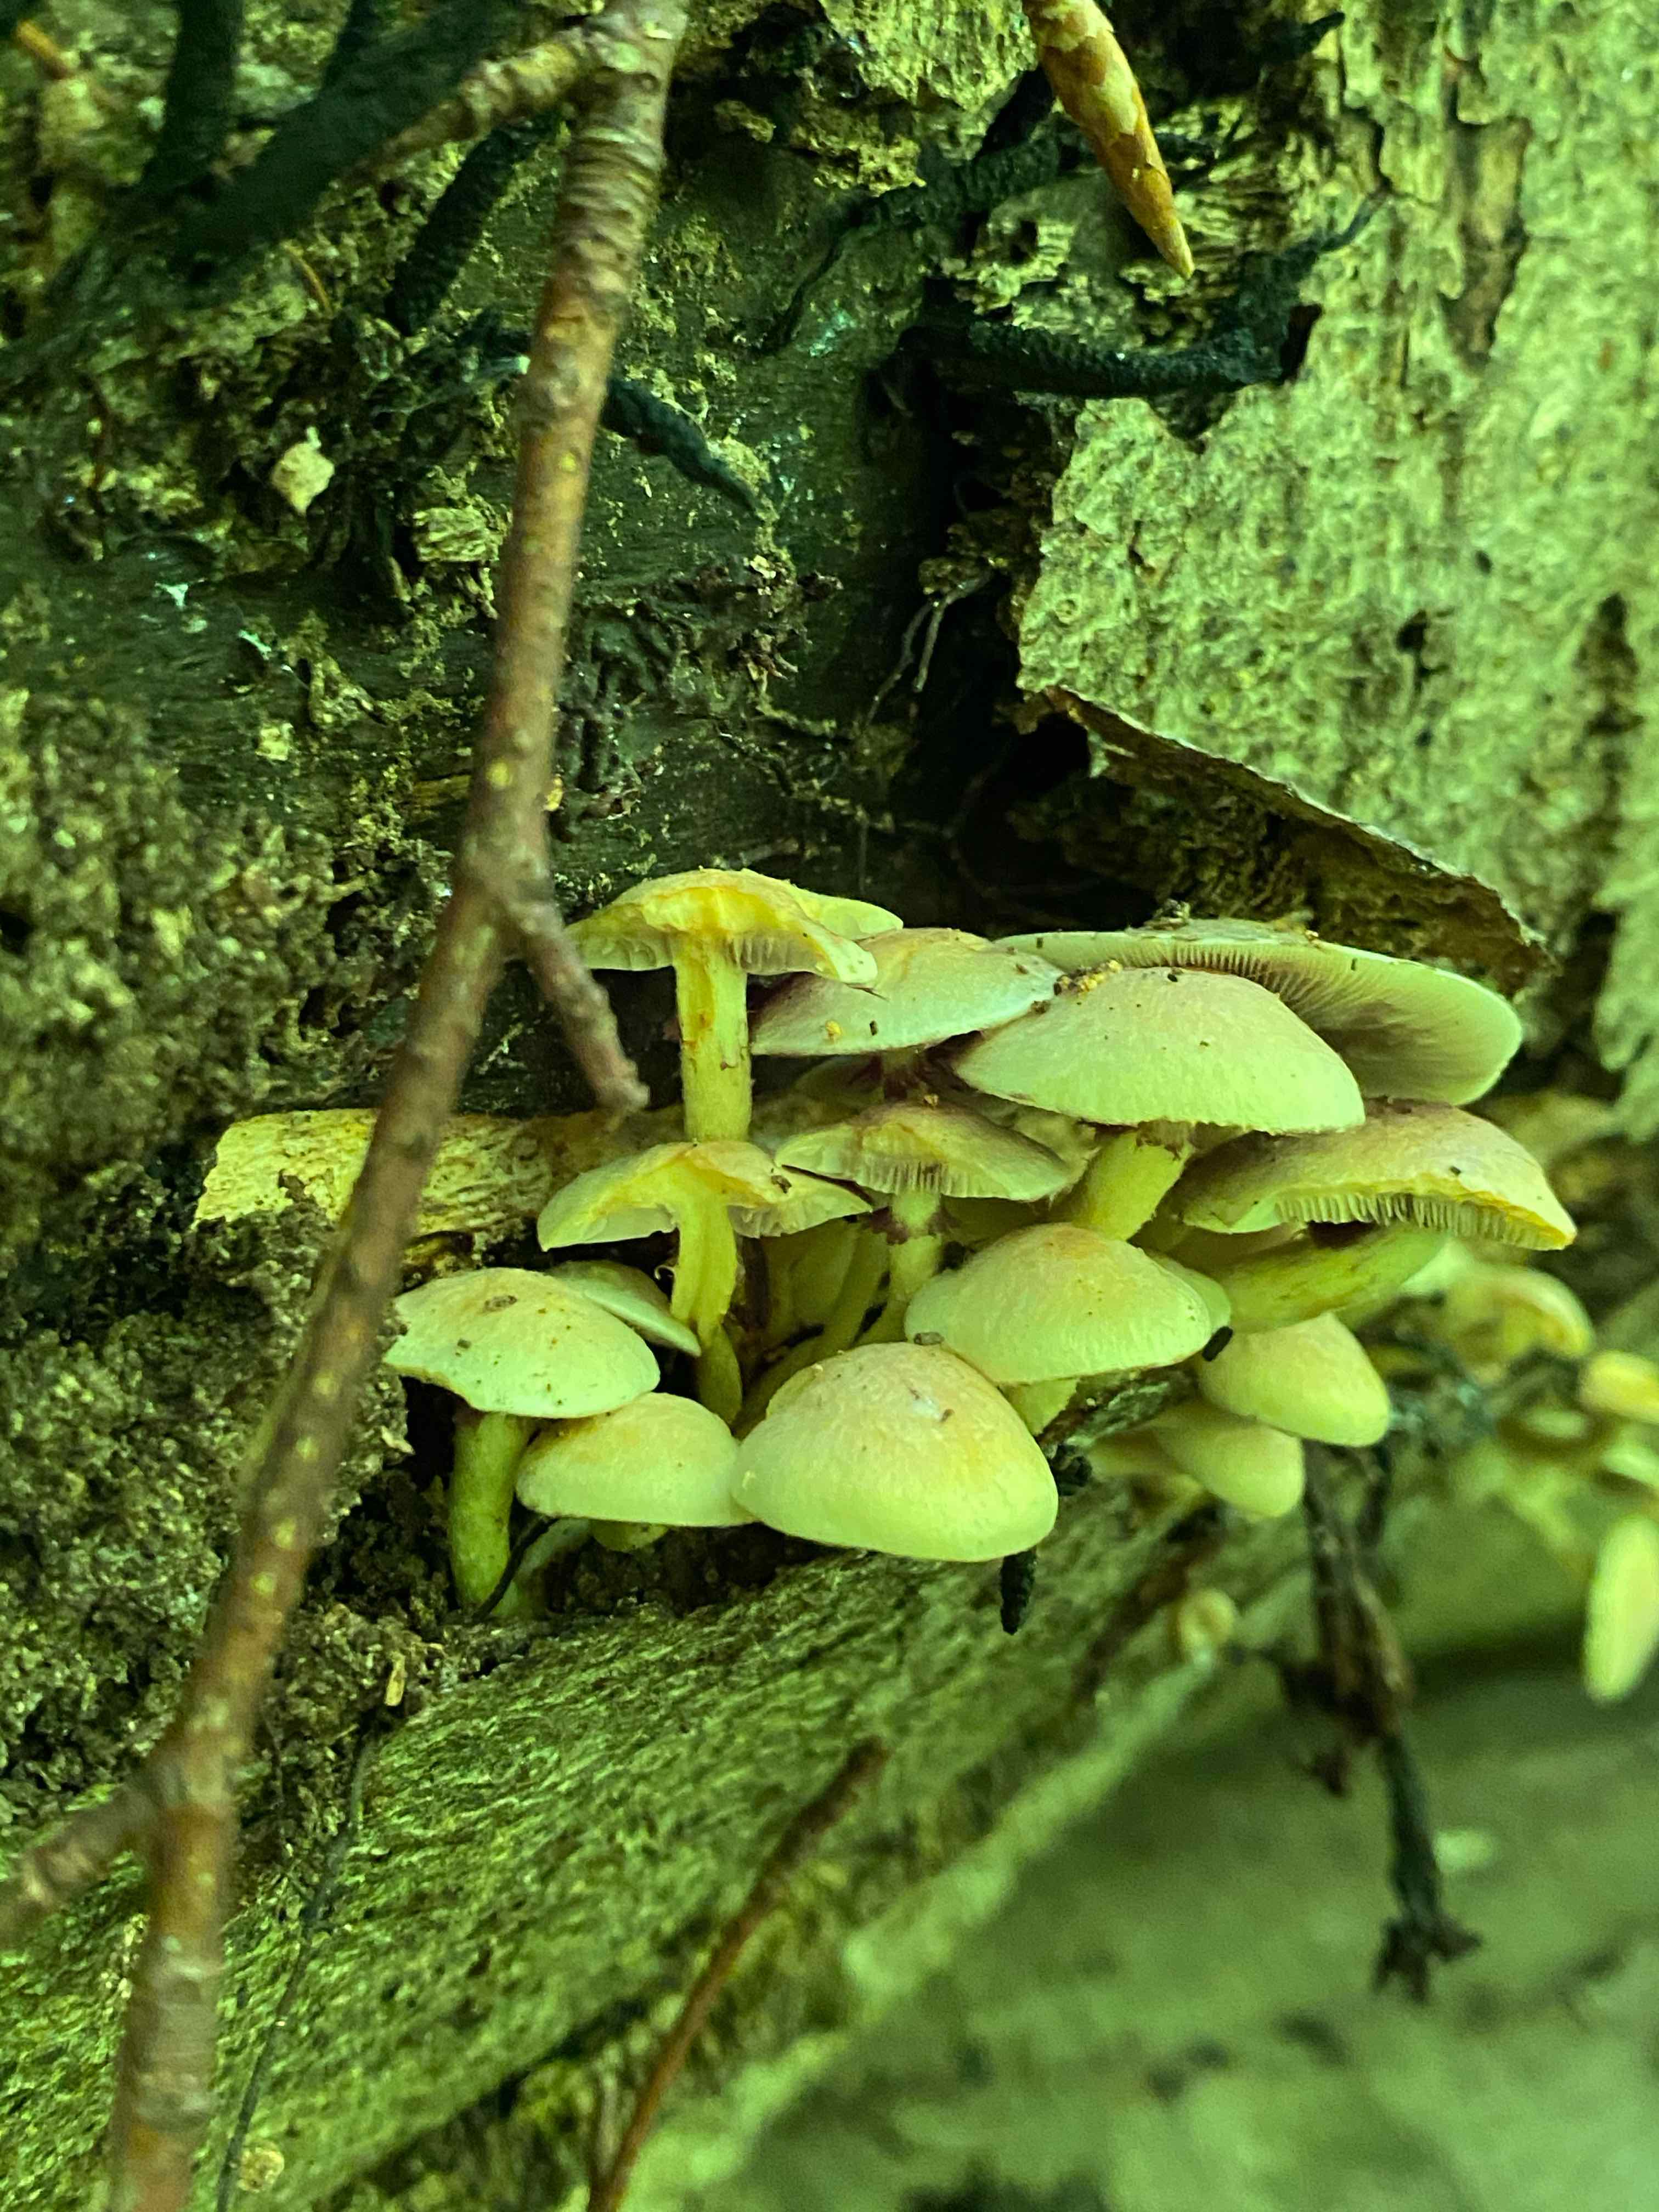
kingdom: Fungi
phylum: Basidiomycota
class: Agaricomycetes
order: Agaricales
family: Strophariaceae
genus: Hypholoma
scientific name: Hypholoma fasciculare
